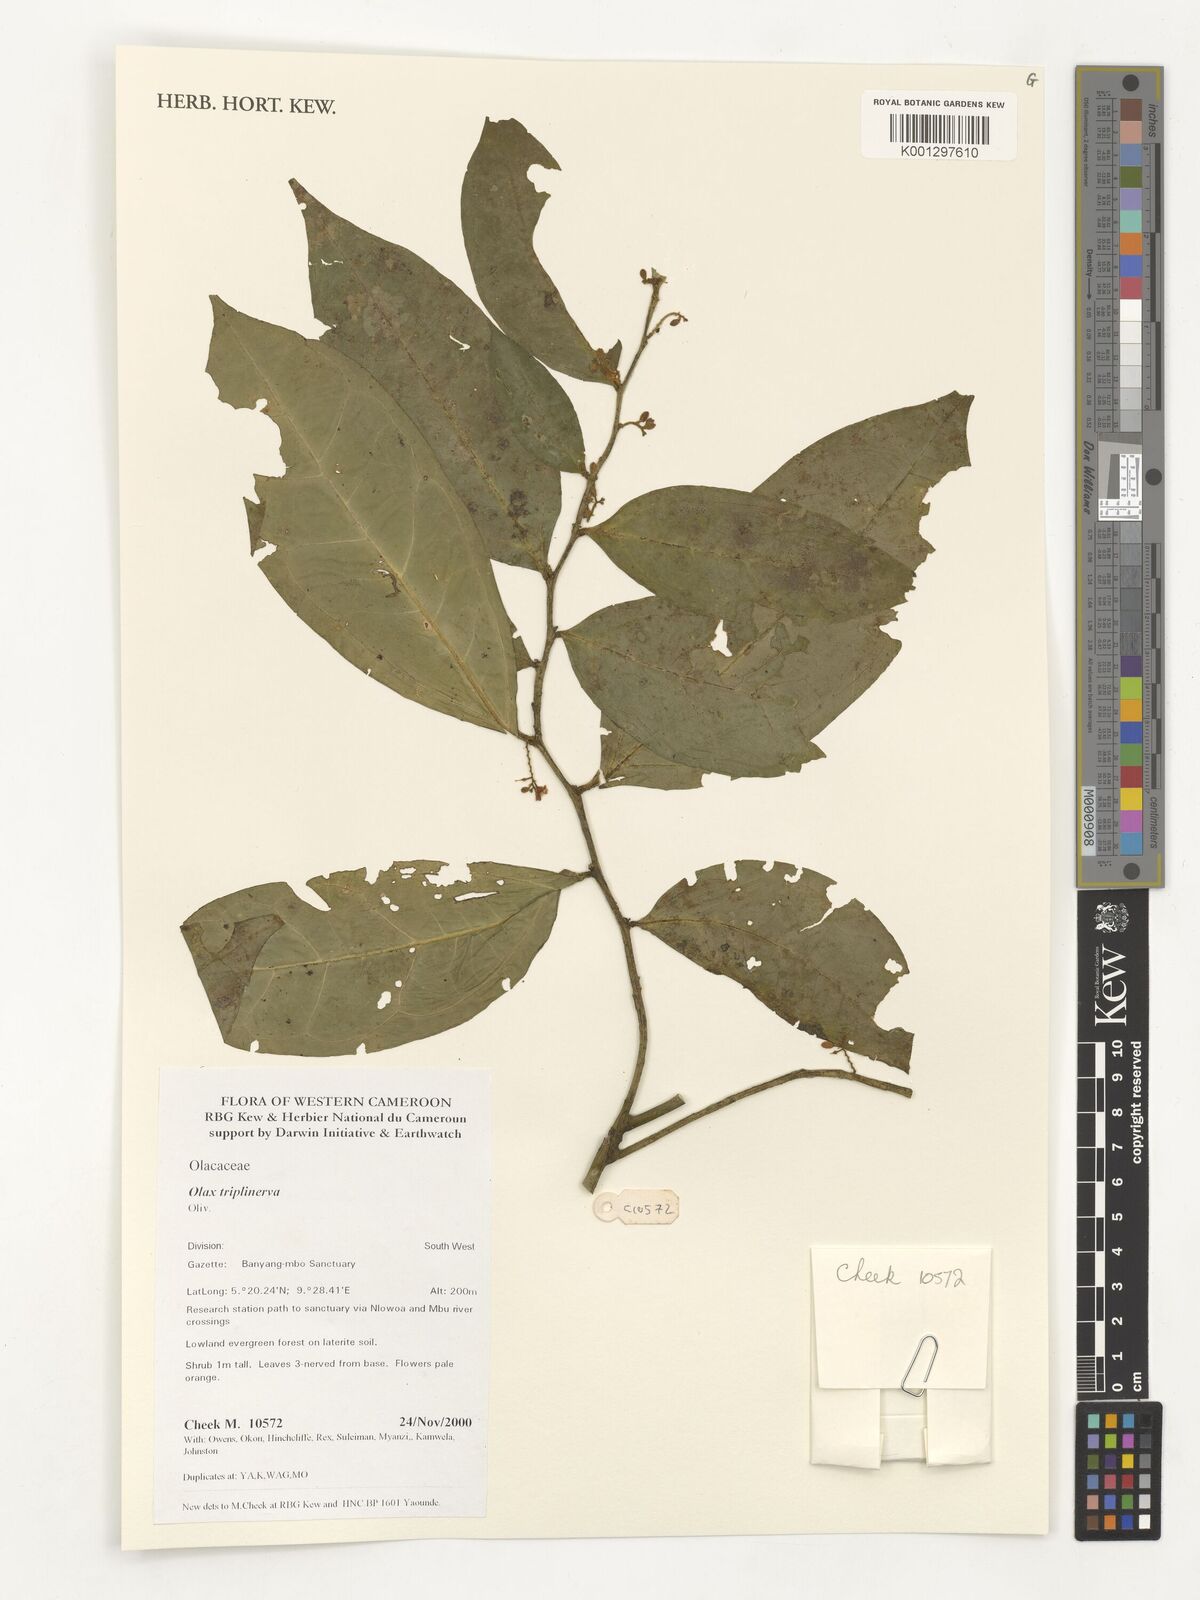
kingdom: Plantae
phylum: Tracheophyta
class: Magnoliopsida
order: Santalales
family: Olacaceae
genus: Olax
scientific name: Olax triplinervia
